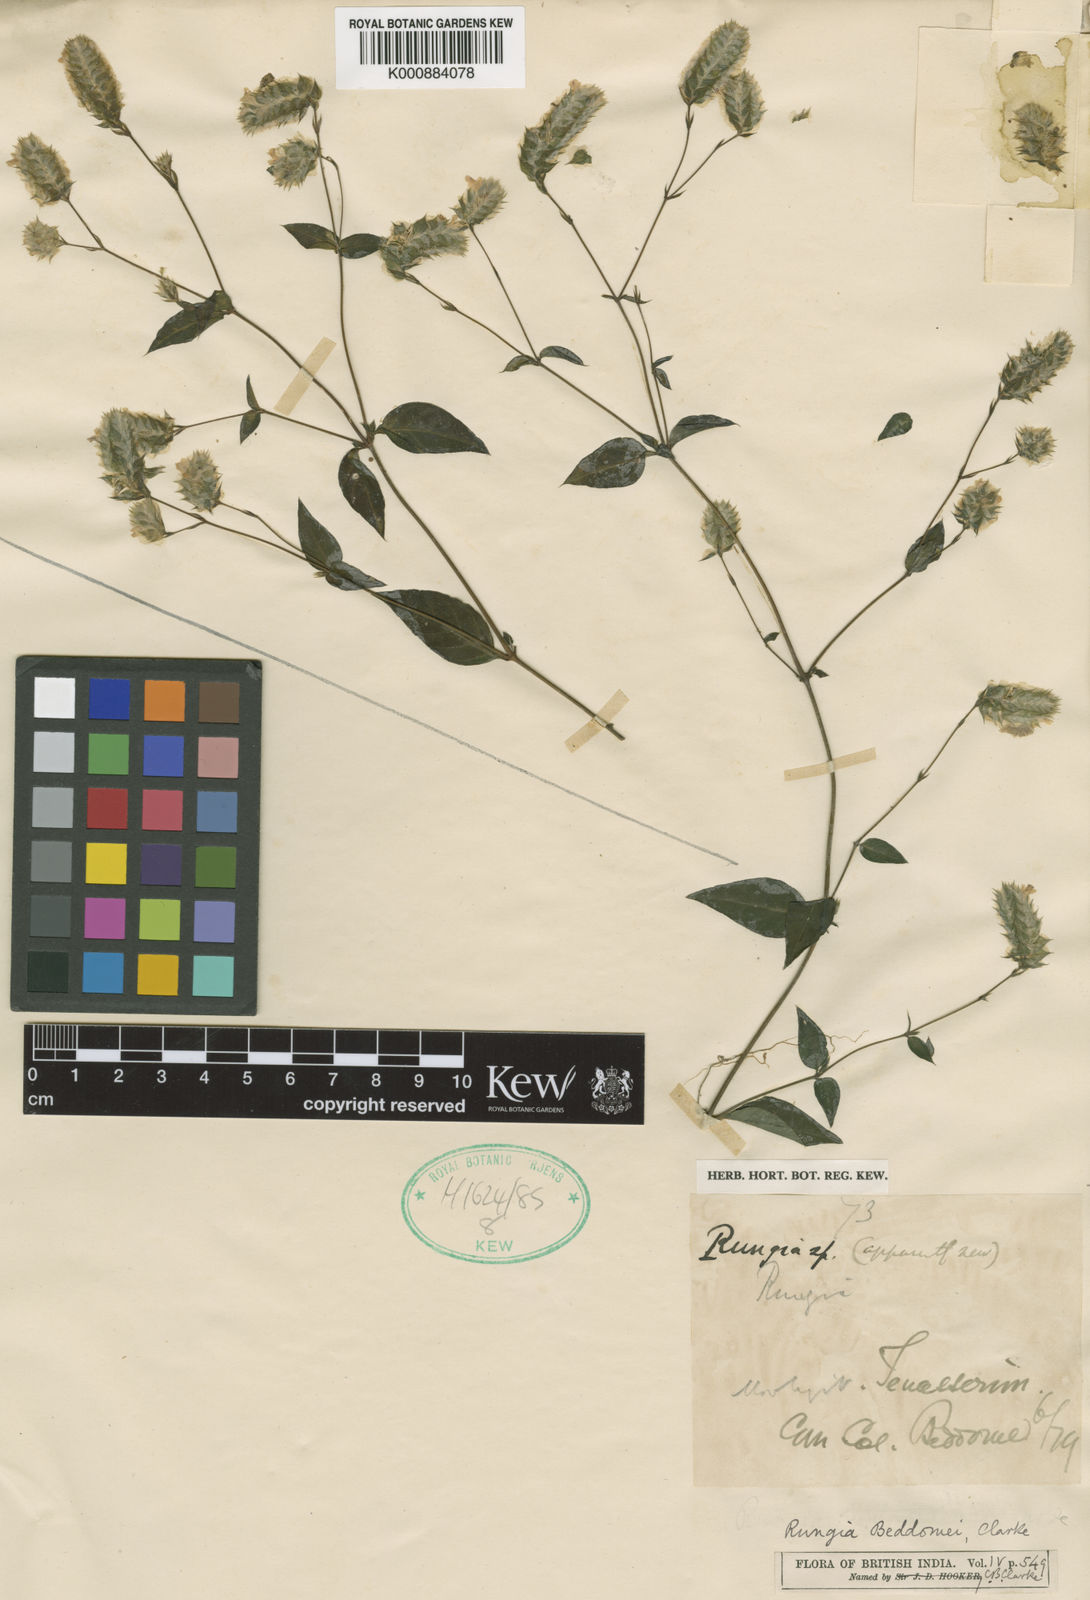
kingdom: Plantae
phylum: Tracheophyta
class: Magnoliopsida
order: Lamiales
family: Acanthaceae
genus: Justicia
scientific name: Justicia beddomei
